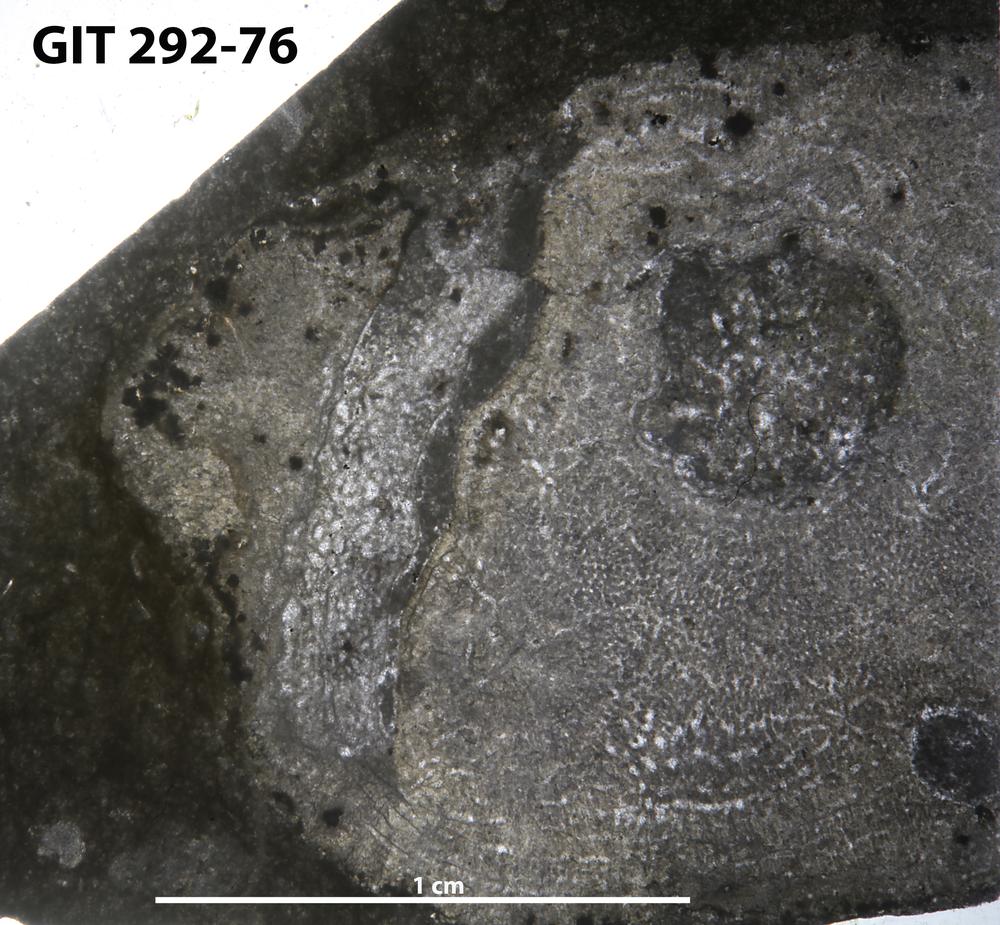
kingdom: Animalia
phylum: Porifera
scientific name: Porifera
